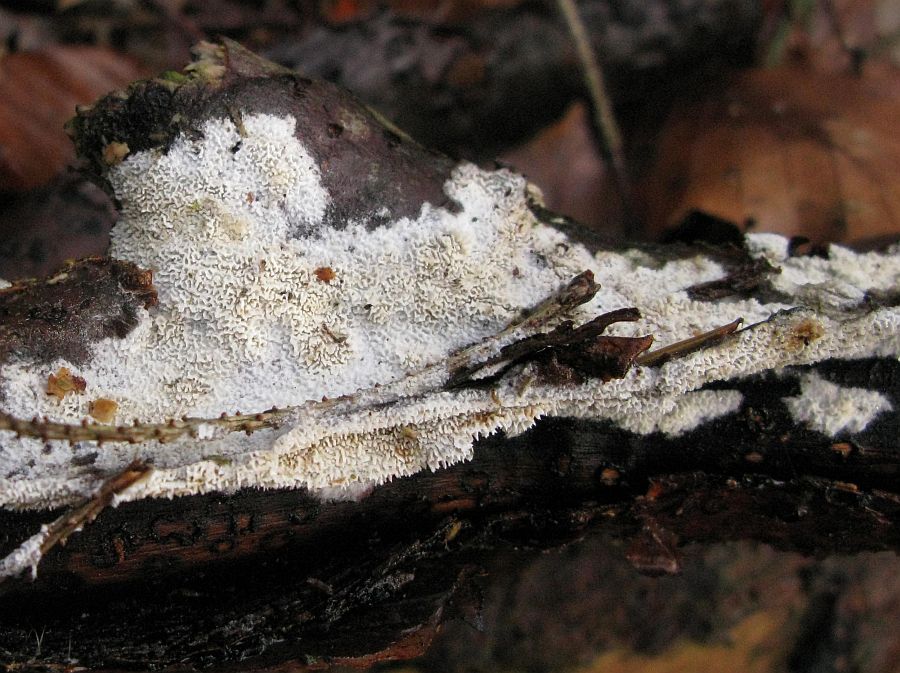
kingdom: Fungi
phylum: Basidiomycota
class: Agaricomycetes
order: Hymenochaetales
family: Schizoporaceae
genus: Xylodon
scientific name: Xylodon subtropicus
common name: labyrint-tandsvamp
